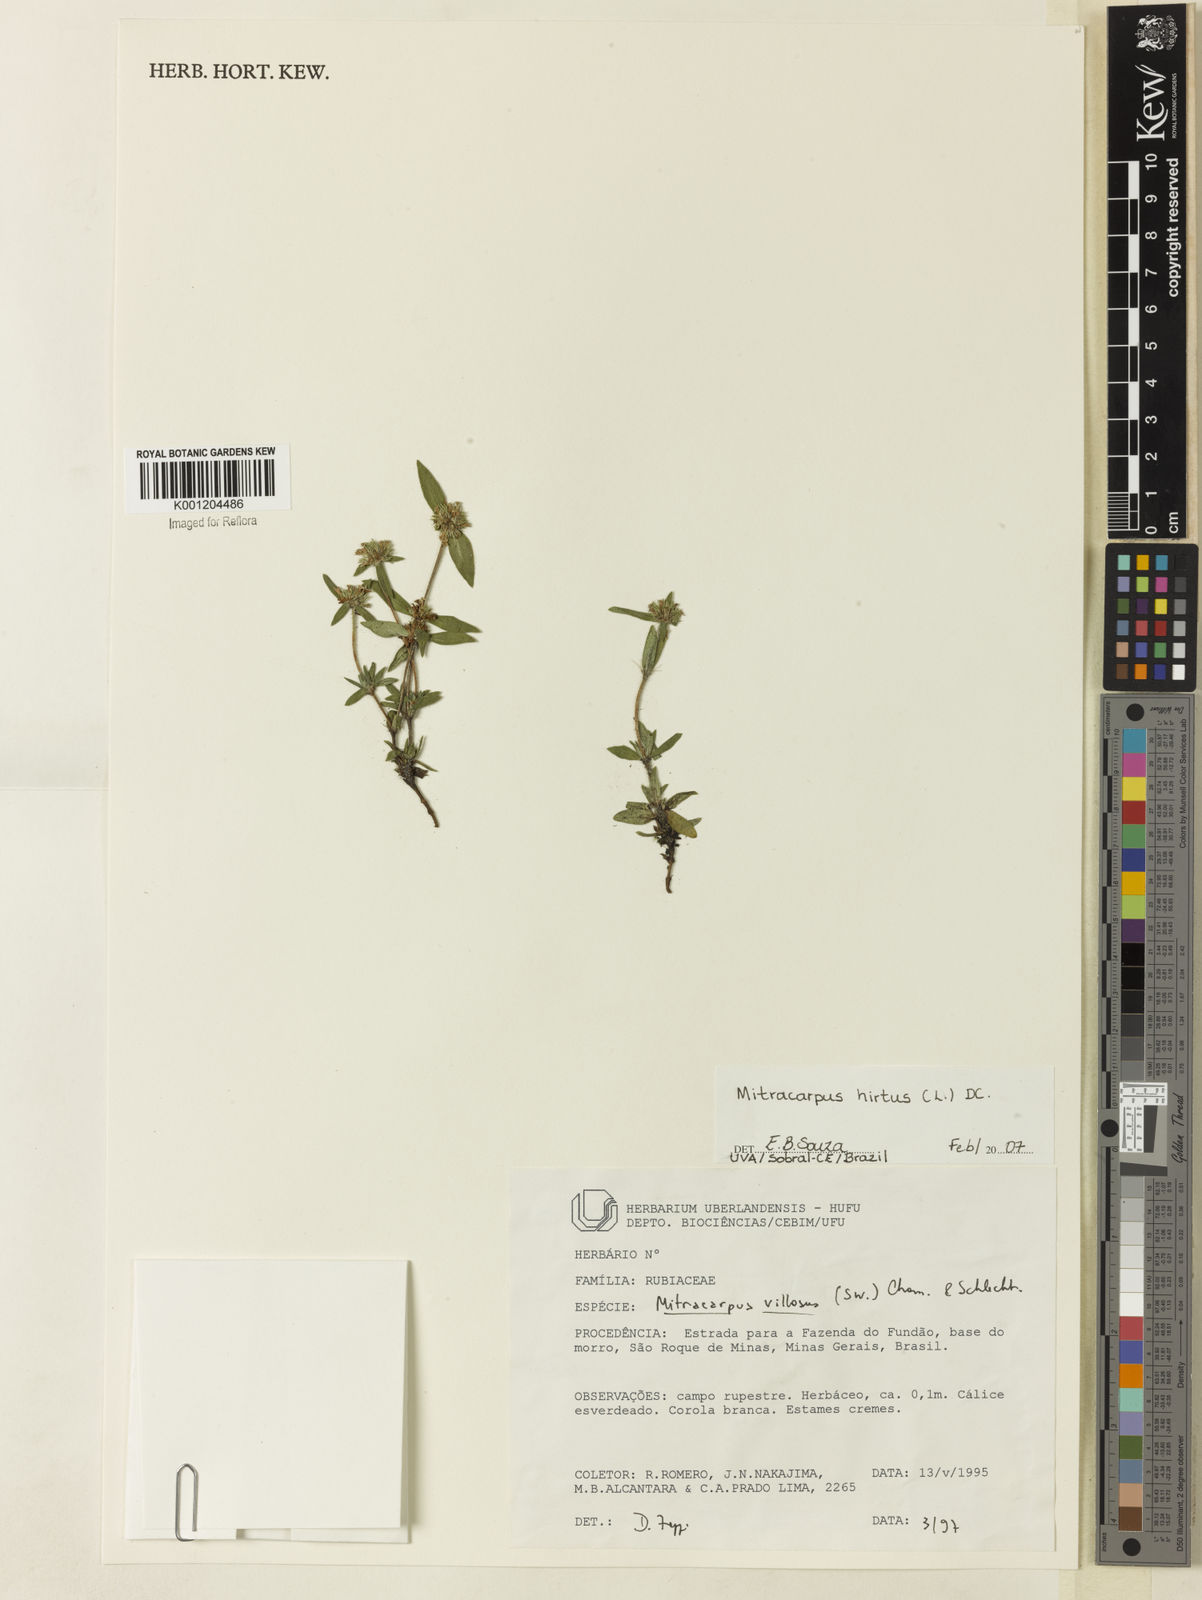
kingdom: Plantae
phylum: Tracheophyta
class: Magnoliopsida
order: Gentianales
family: Rubiaceae
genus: Mitracarpus
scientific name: Mitracarpus hirtus
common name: Tropical girdlepod
